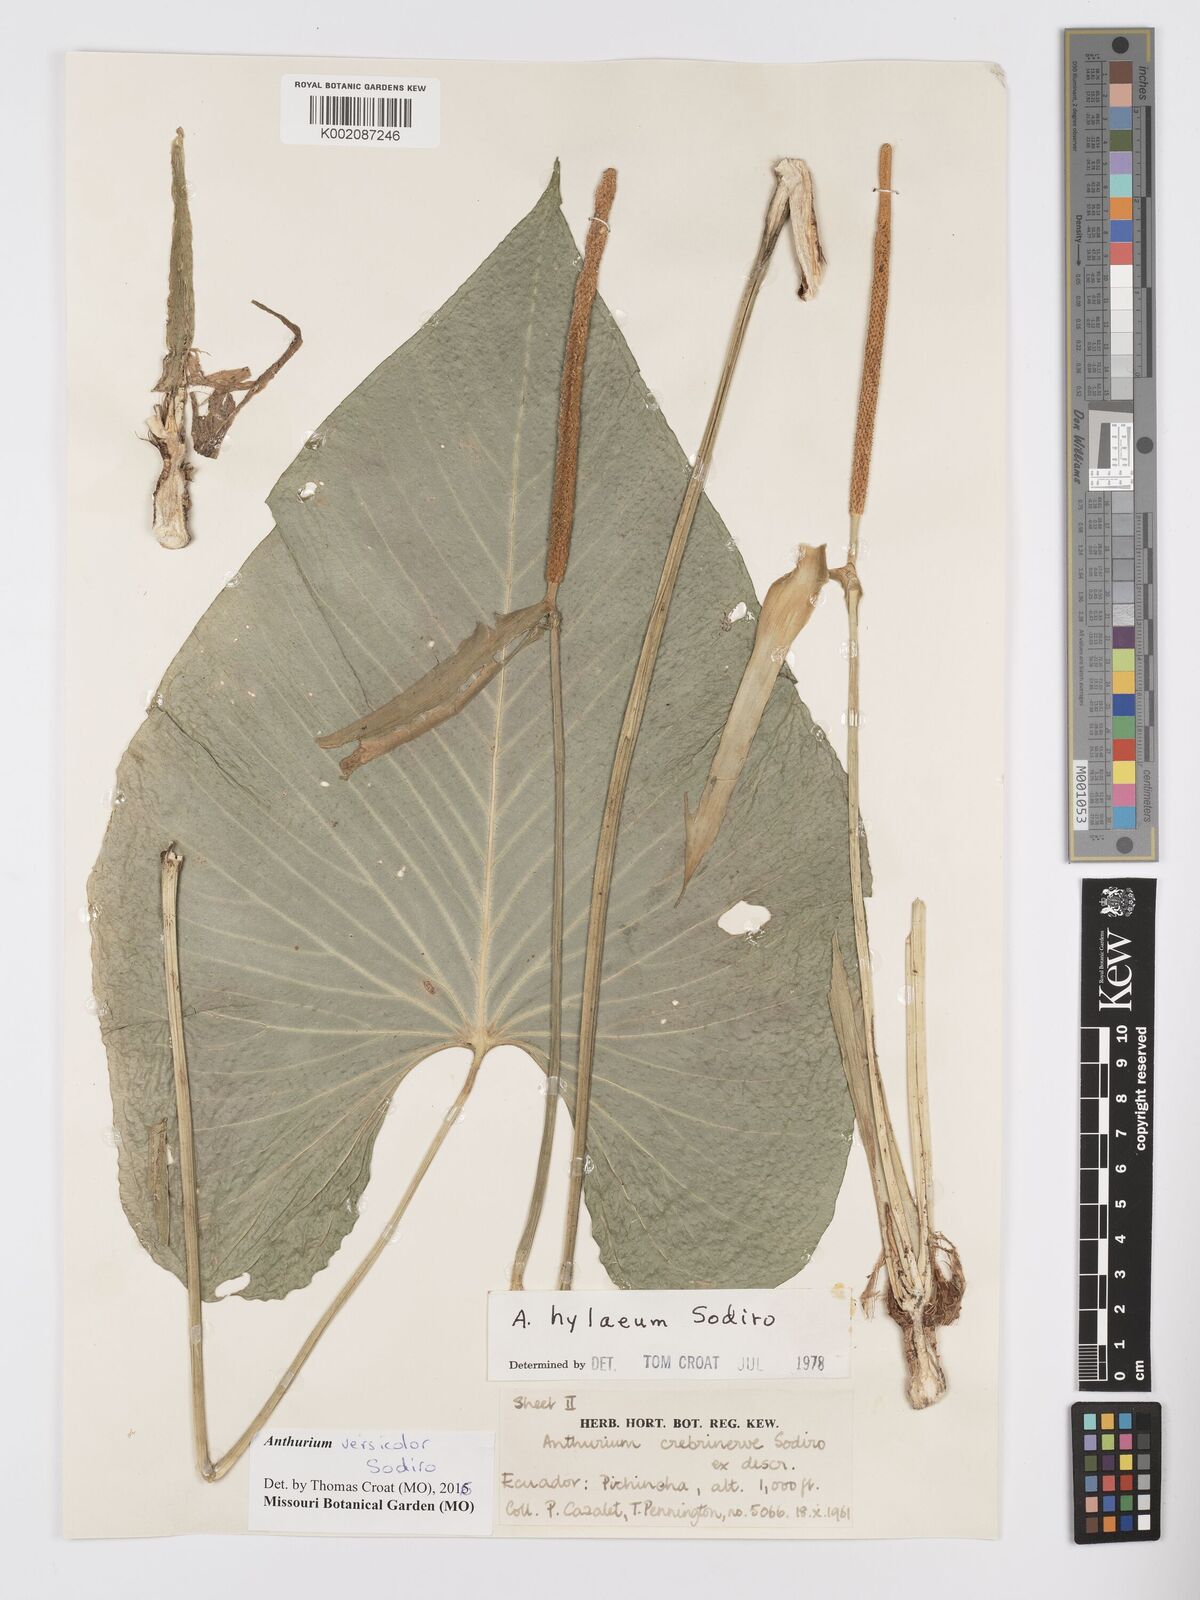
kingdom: Plantae
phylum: Tracheophyta
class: Liliopsida
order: Alismatales
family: Araceae
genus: Anthurium
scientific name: Anthurium versicolor
